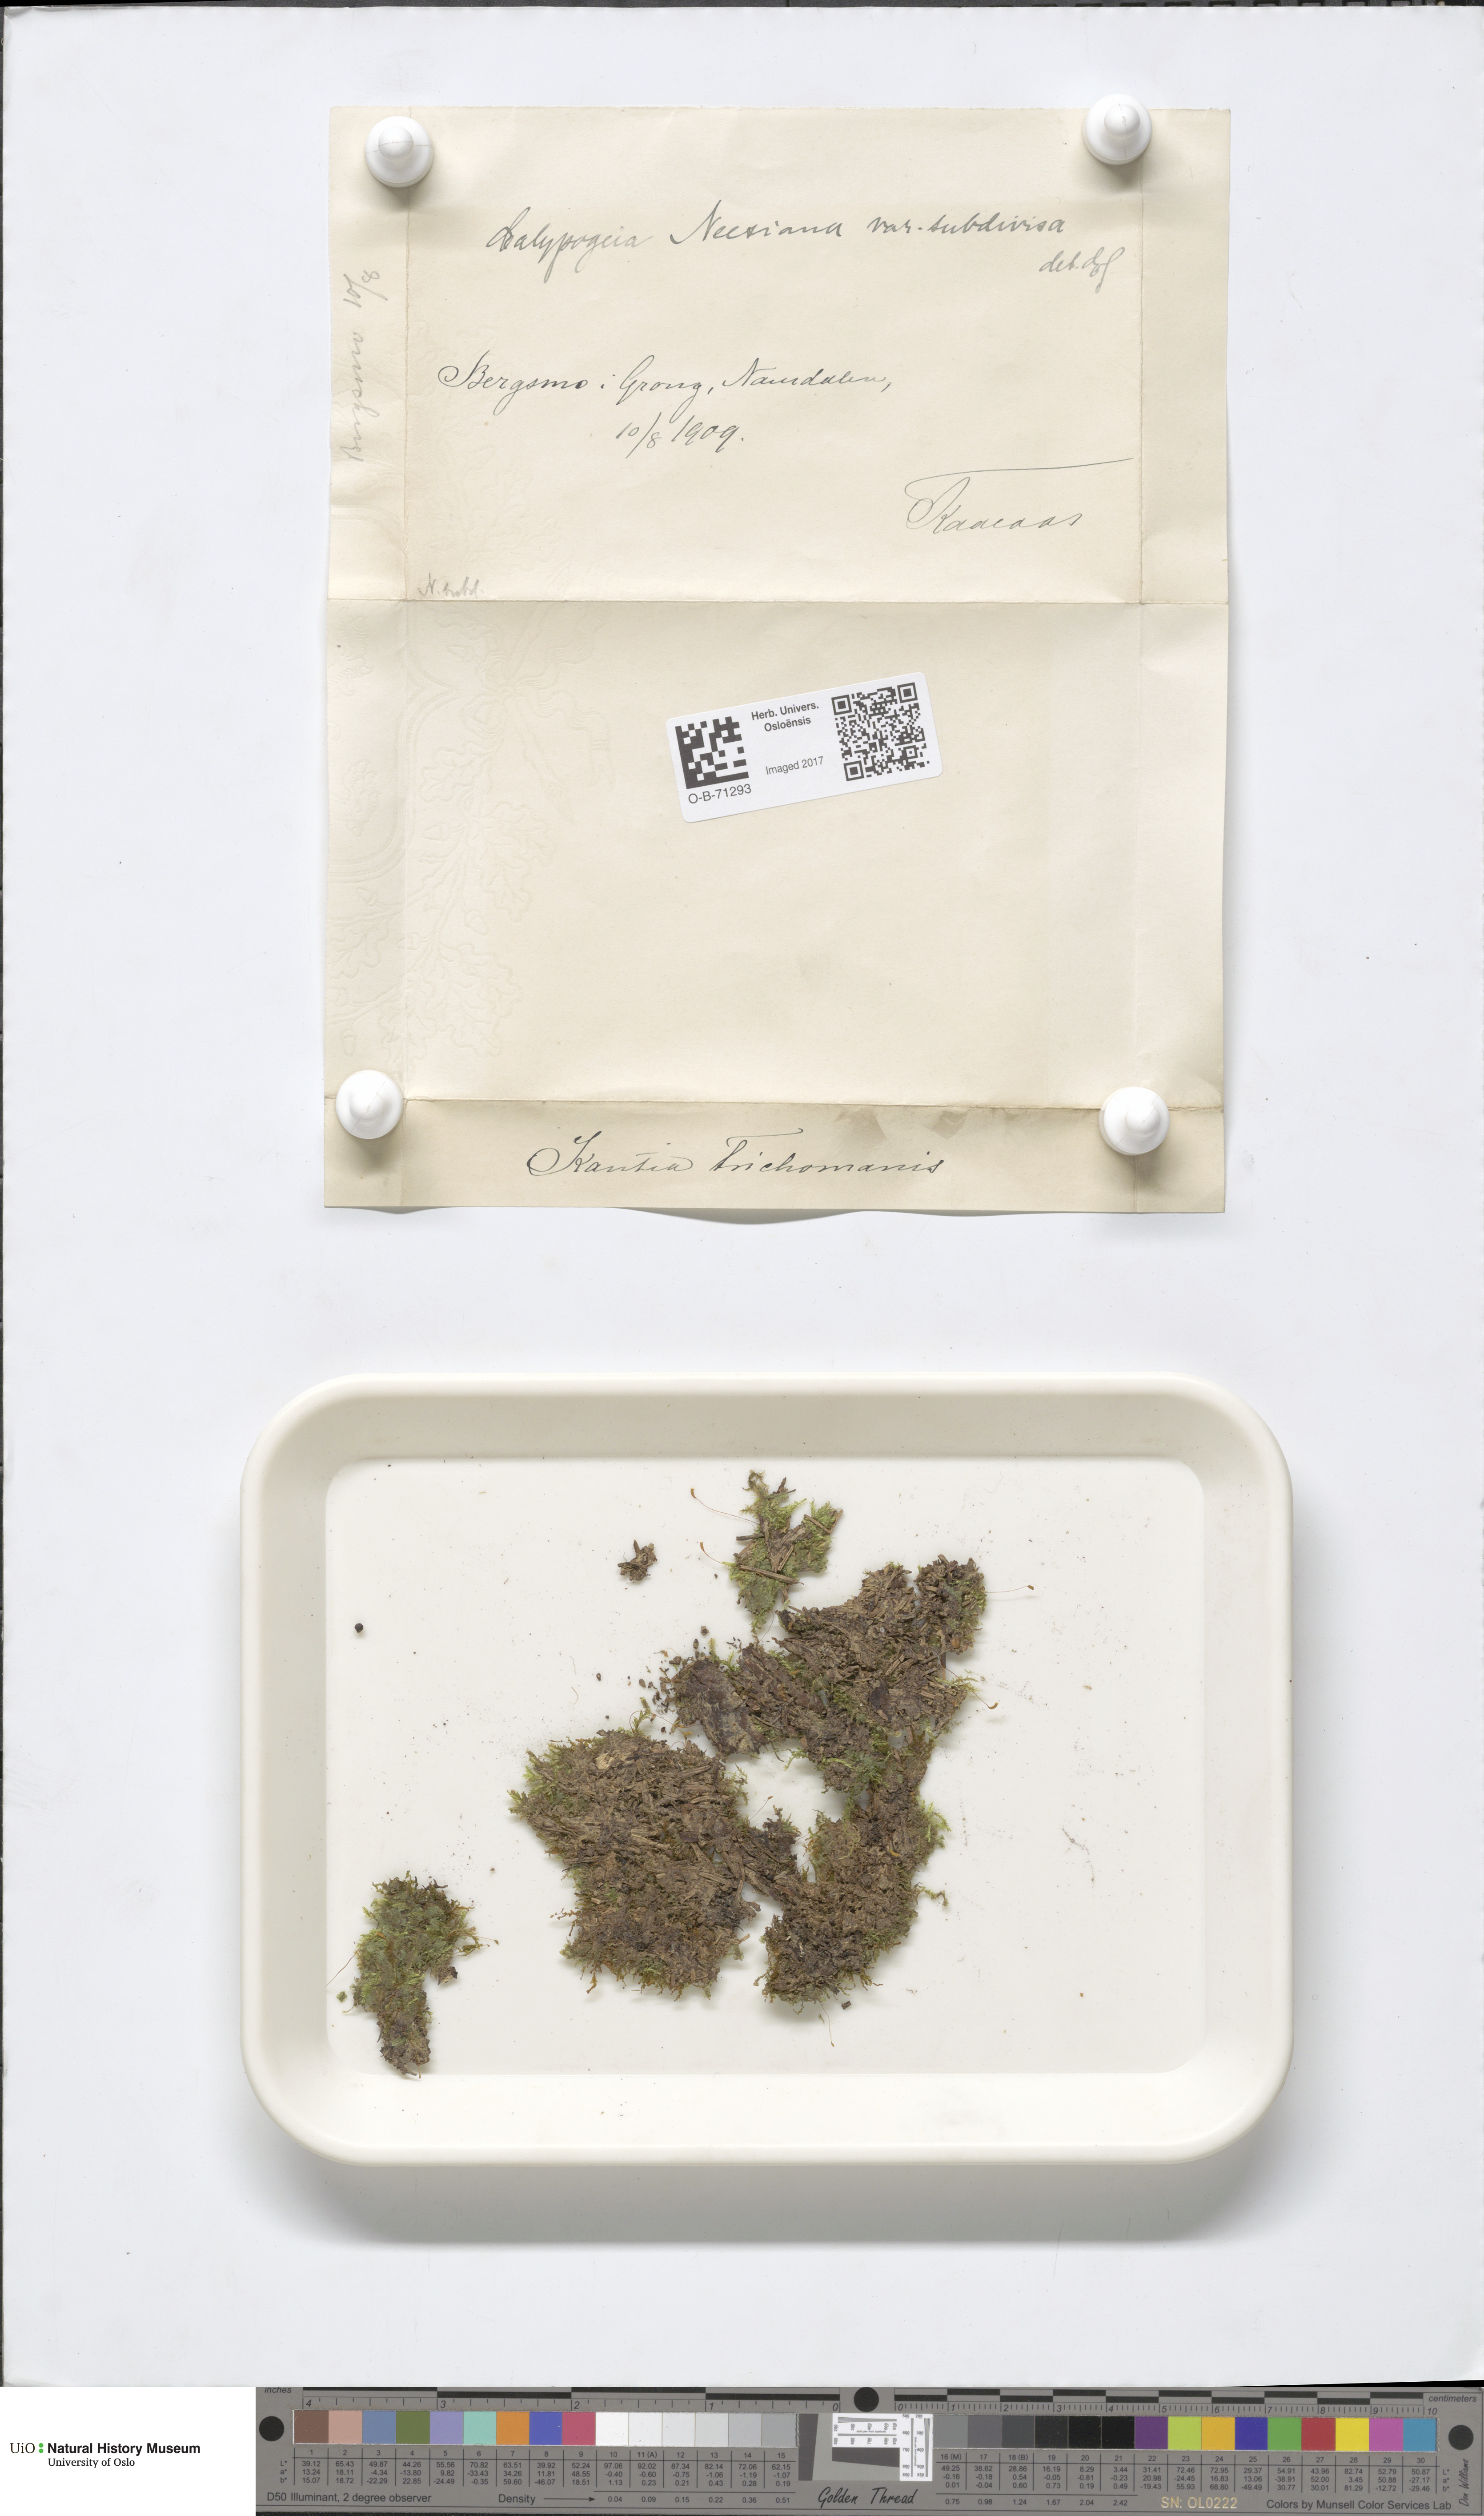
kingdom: Plantae
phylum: Marchantiophyta
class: Jungermanniopsida
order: Jungermanniales
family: Calypogeiaceae
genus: Calypogeia
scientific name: Calypogeia integristipula
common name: Meylan s pouchwort
